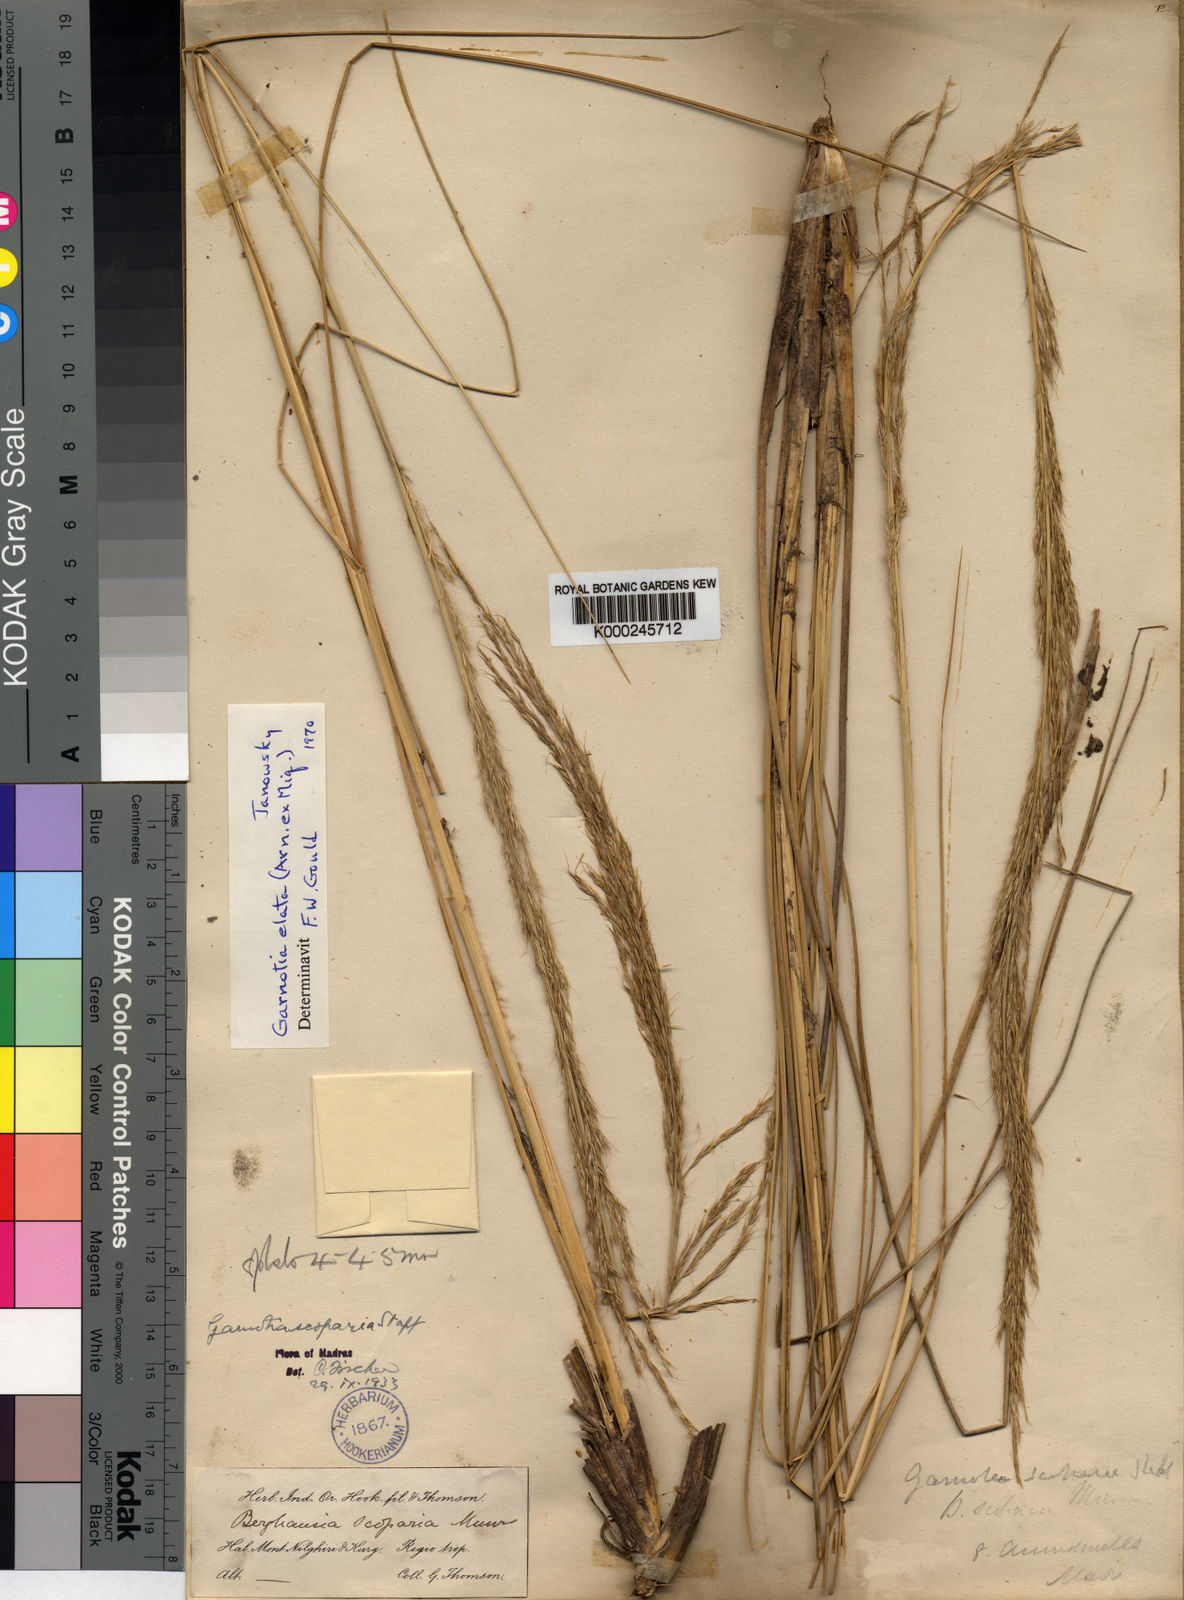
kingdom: Plantae
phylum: Tracheophyta
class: Liliopsida
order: Poales
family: Poaceae
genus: Garnotia
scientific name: Garnotia elata
